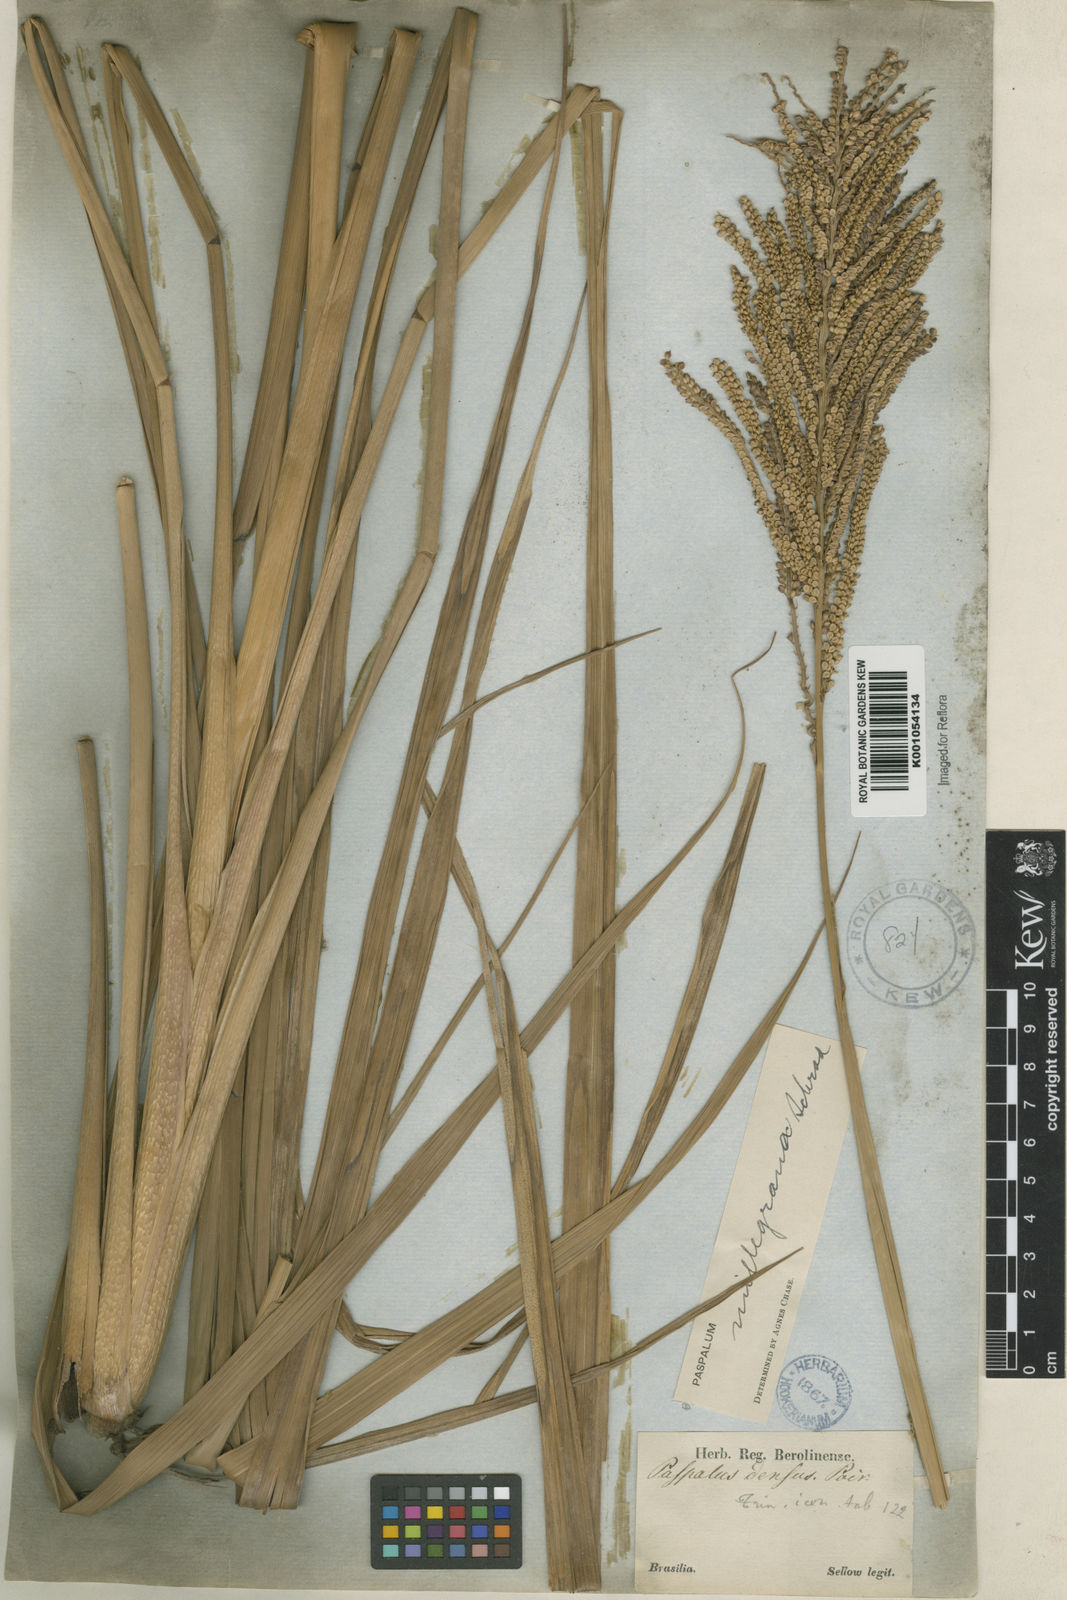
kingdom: Plantae
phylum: Tracheophyta
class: Liliopsida
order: Poales
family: Poaceae
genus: Paspalum
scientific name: Paspalum
